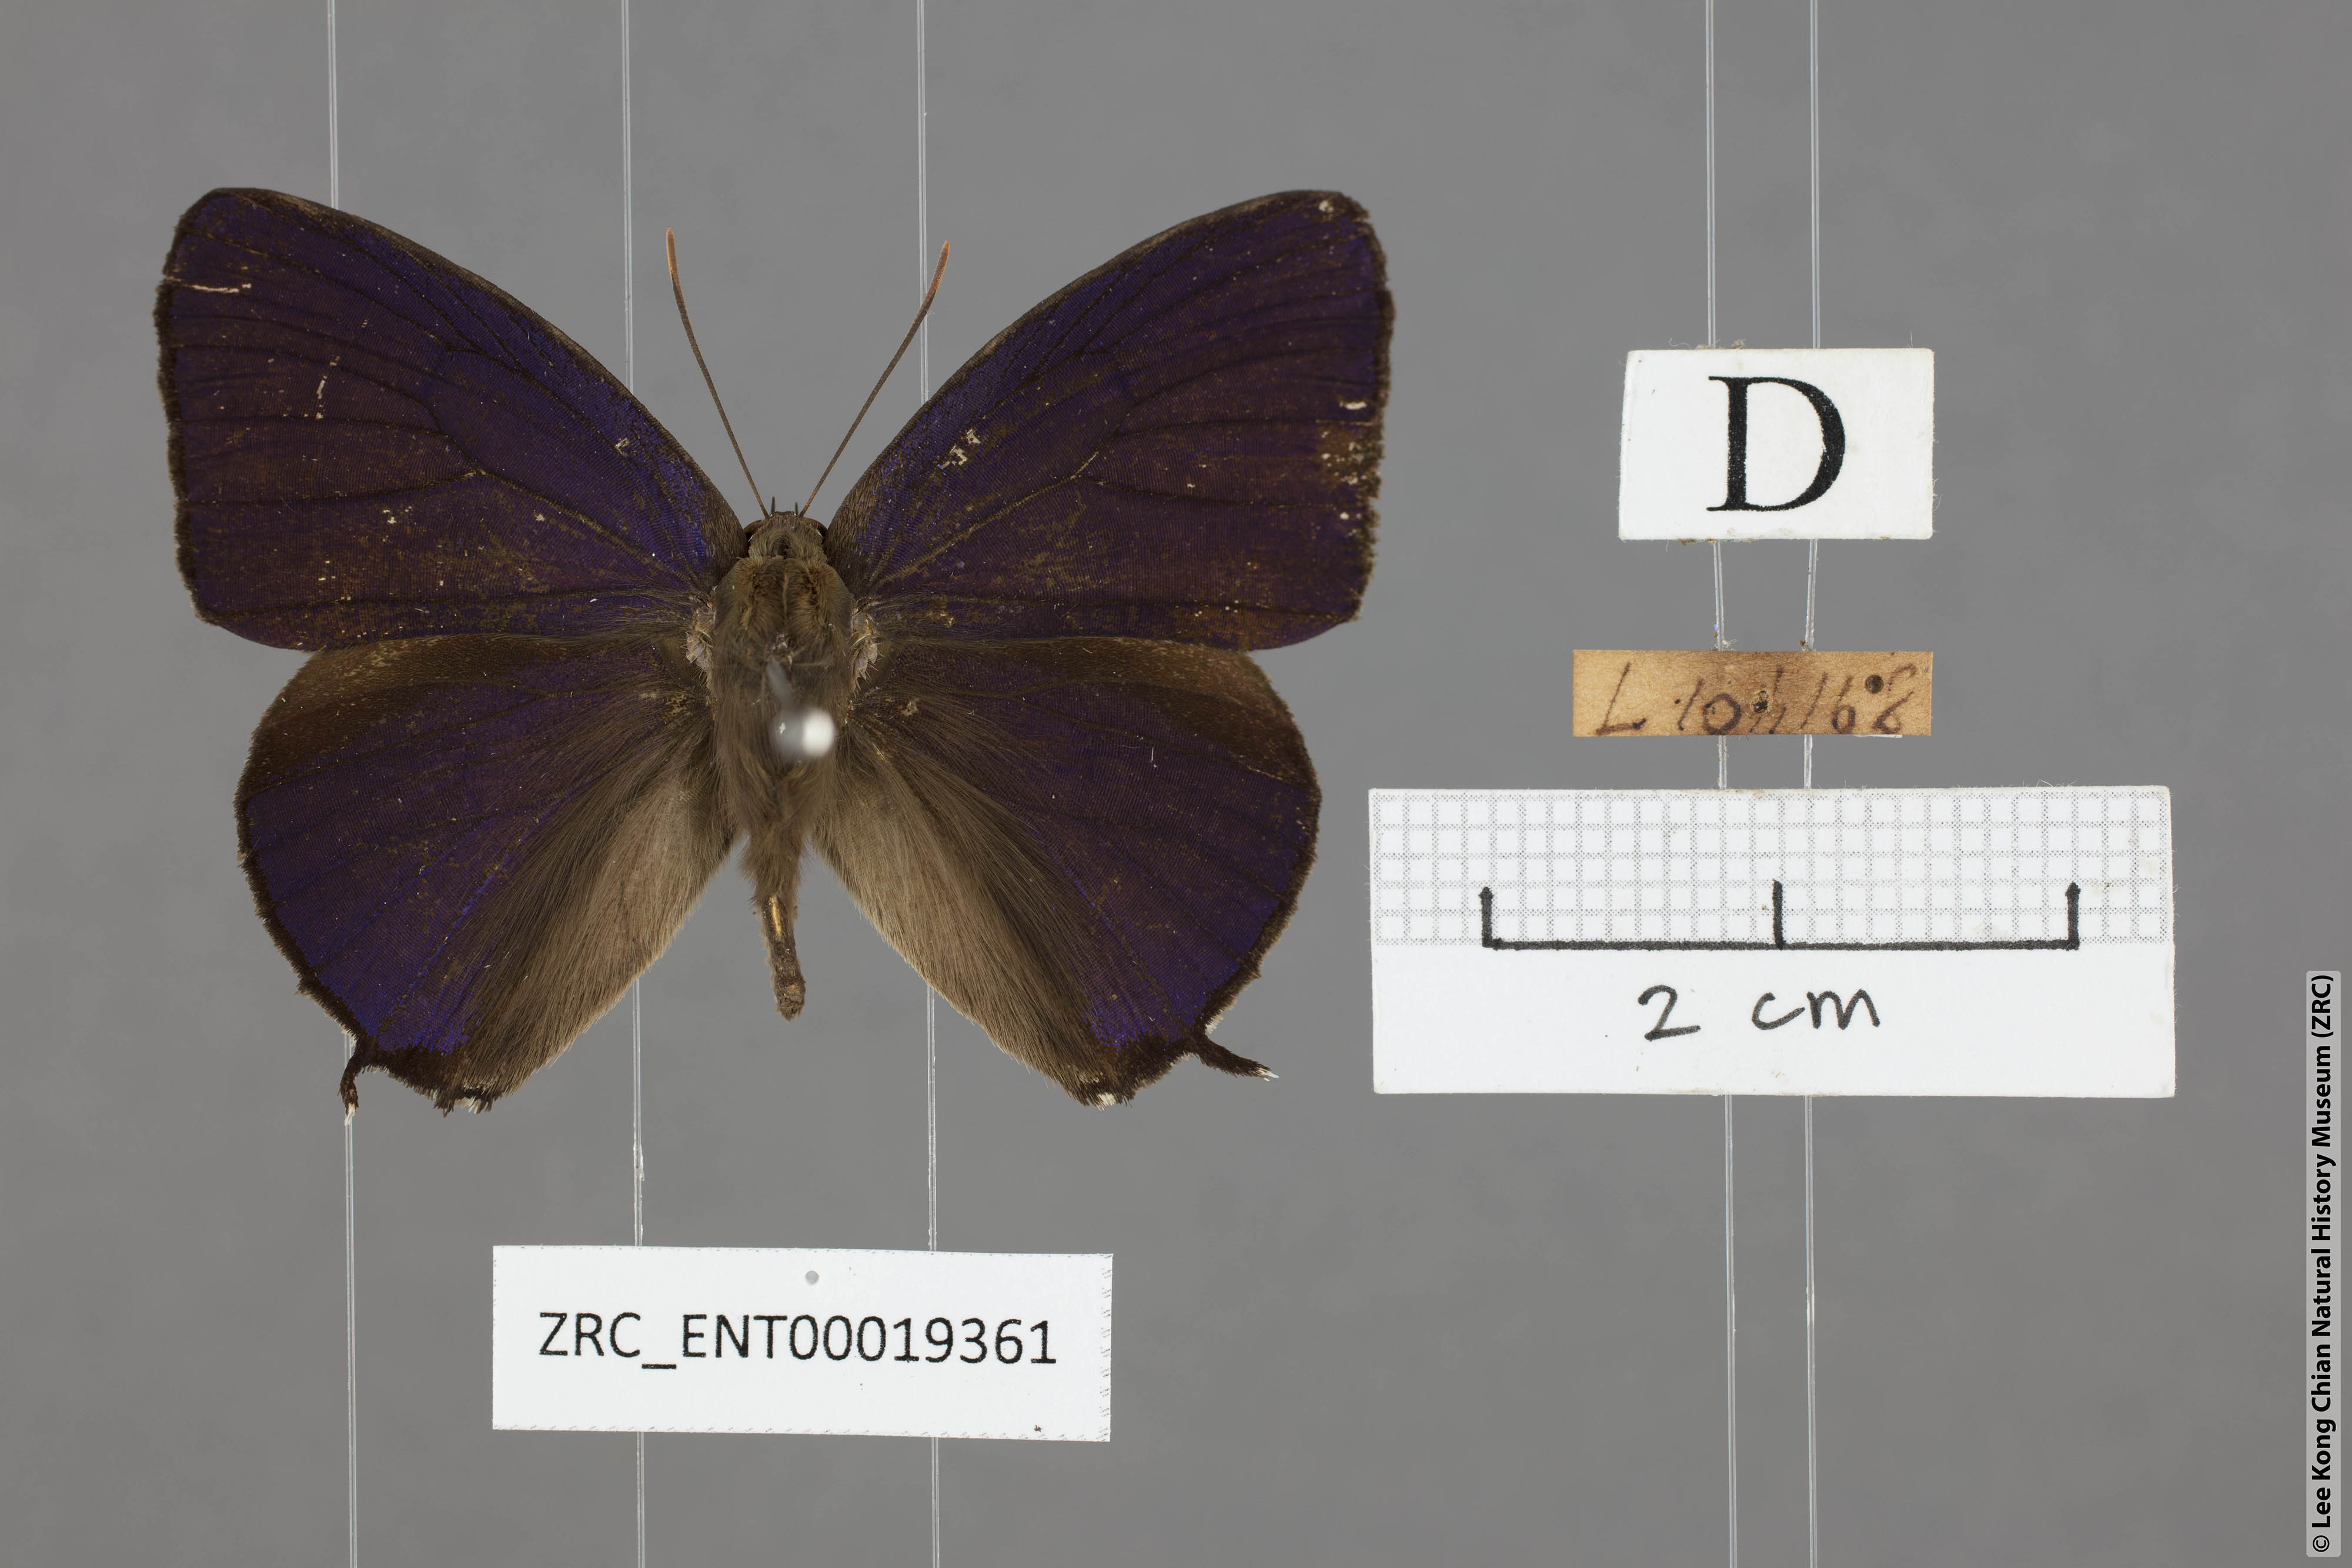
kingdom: Animalia
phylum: Arthropoda
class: Insecta
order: Lepidoptera
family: Lycaenidae
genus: Arhopala
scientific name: Arhopala corinda
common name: Ultramarine oakblue
